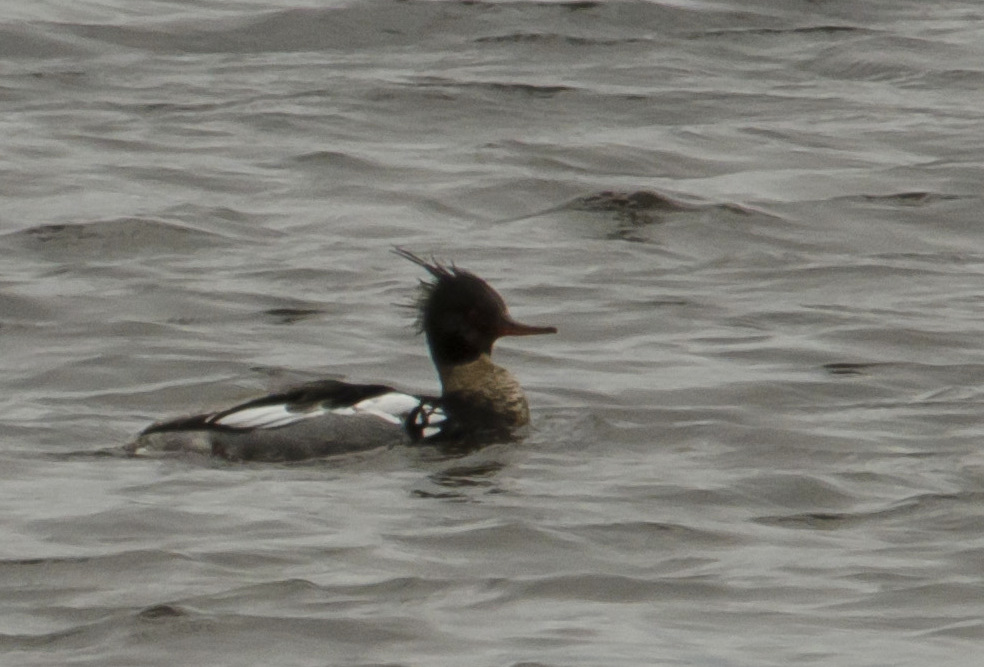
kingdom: Animalia
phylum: Chordata
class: Aves
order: Anseriformes
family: Anatidae
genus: Mergus
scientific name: Mergus serrator
